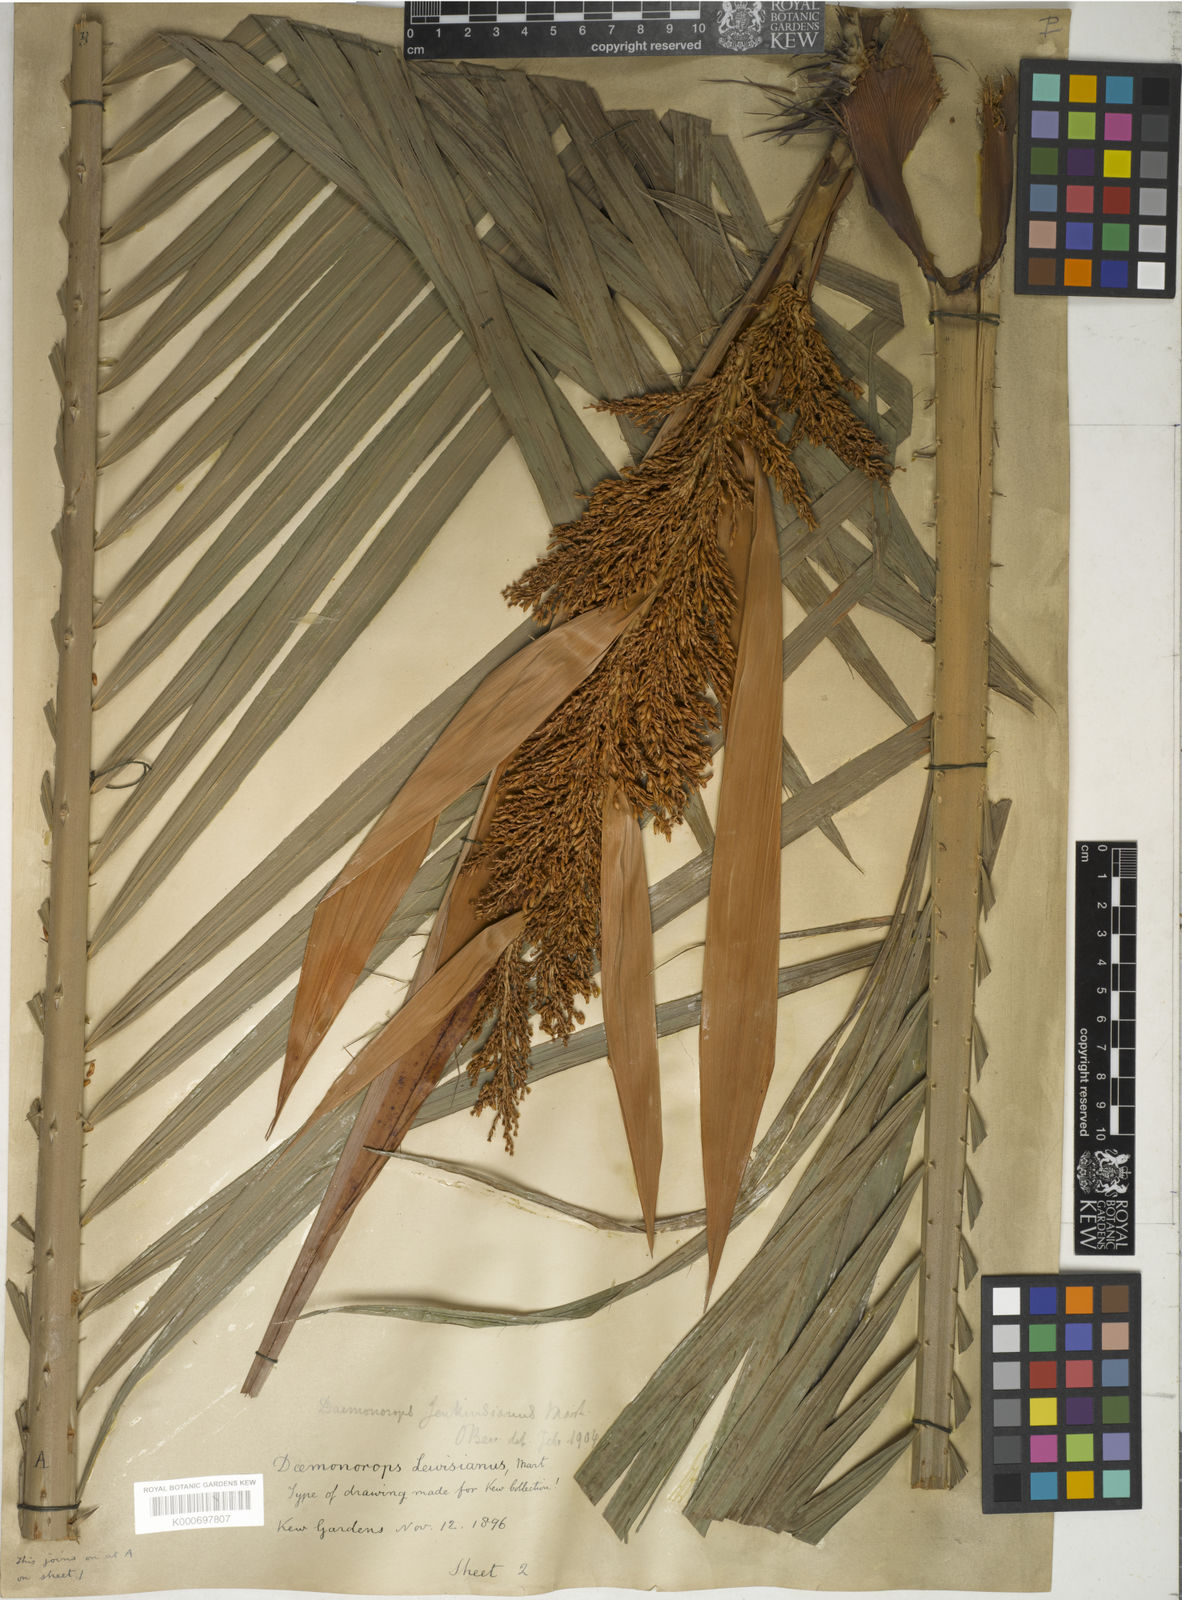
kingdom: Plantae
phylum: Tracheophyta
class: Liliopsida
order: Arecales
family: Arecaceae
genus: Calamus
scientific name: Calamus melanochaetes
